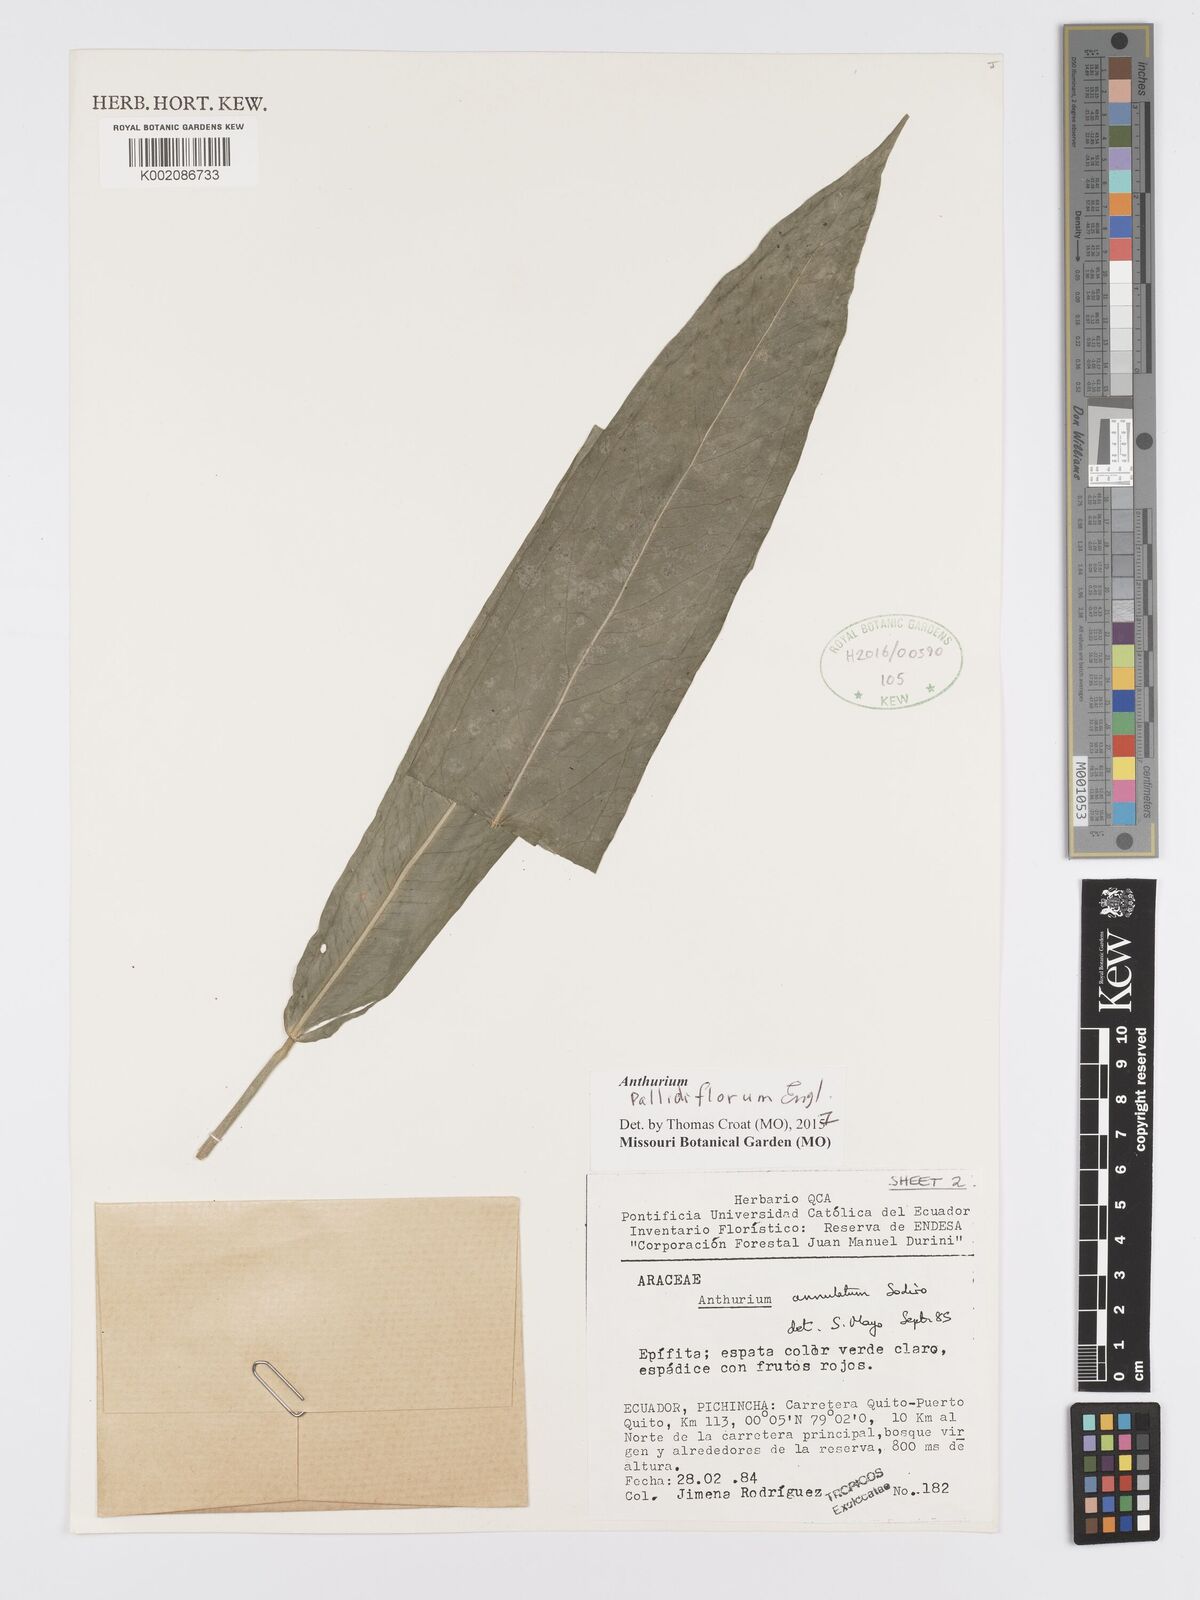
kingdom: Plantae
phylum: Tracheophyta
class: Liliopsida
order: Alismatales
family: Araceae
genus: Anthurium
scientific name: Anthurium pallidiflorum
